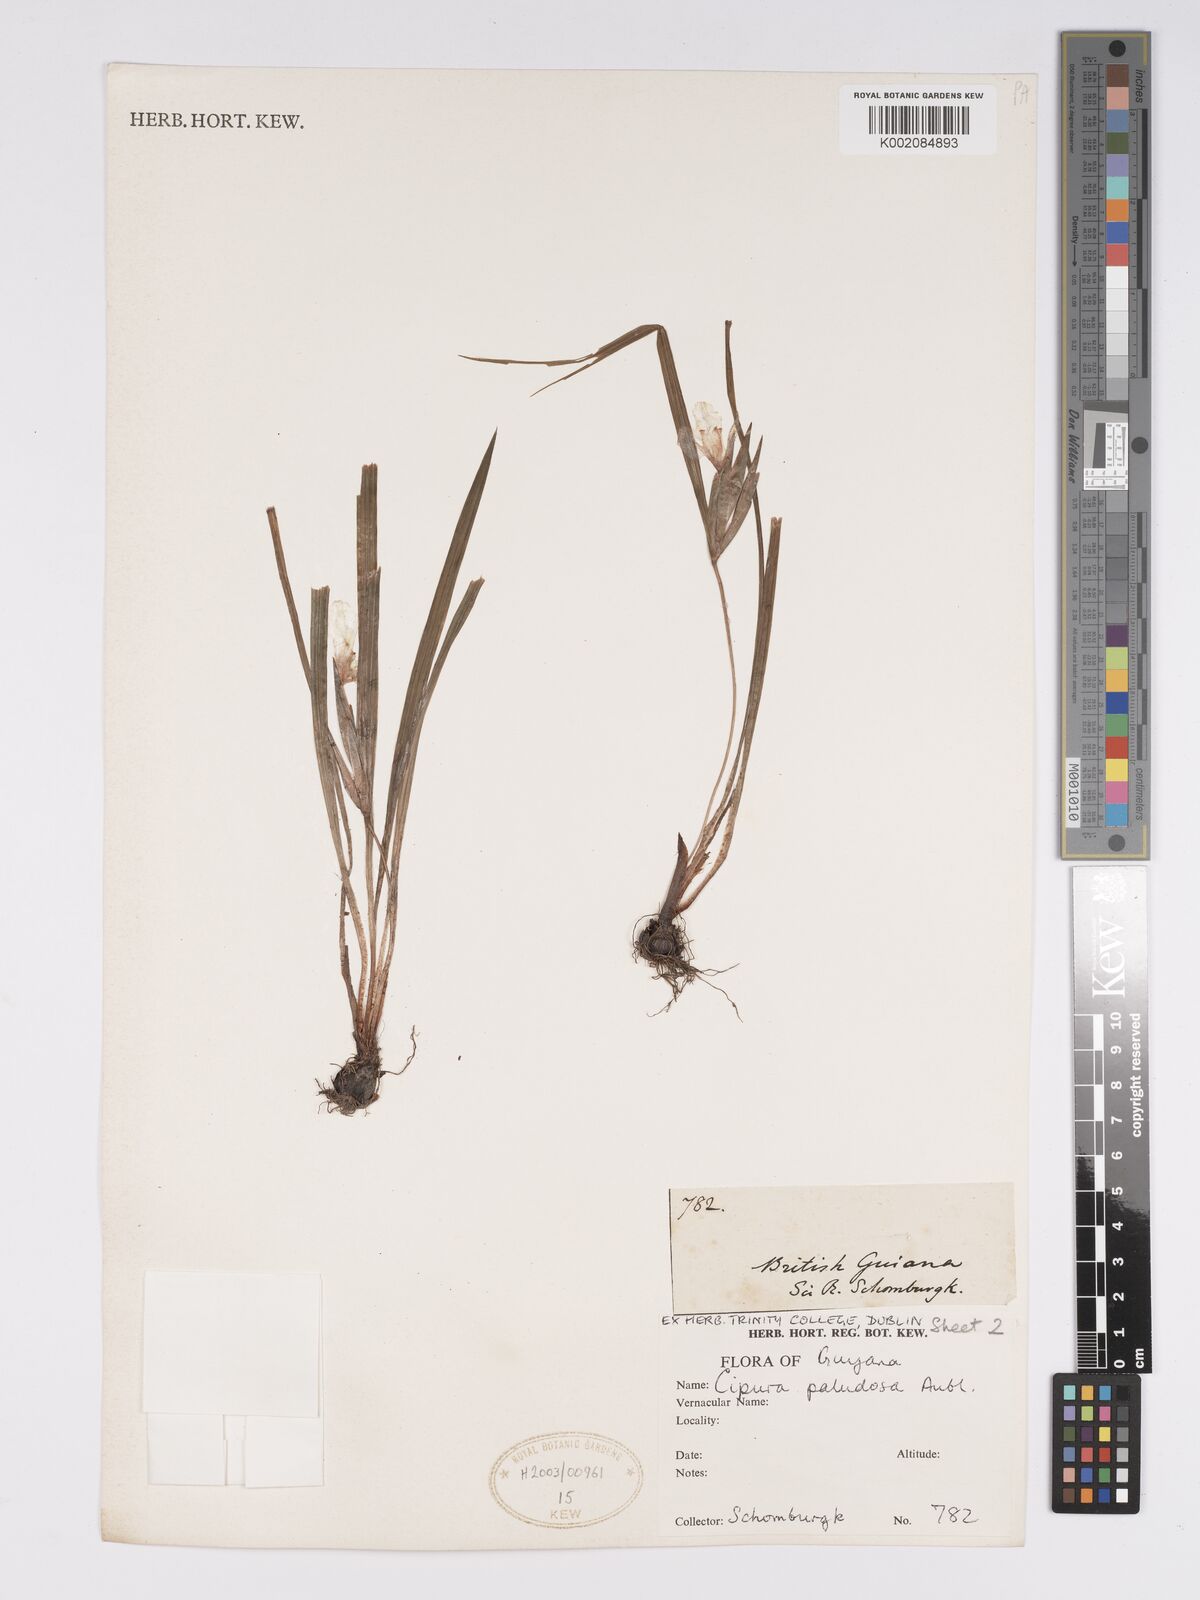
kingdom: Plantae
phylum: Tracheophyta
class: Liliopsida
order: Asparagales
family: Iridaceae
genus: Cipura
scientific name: Cipura paludosa
